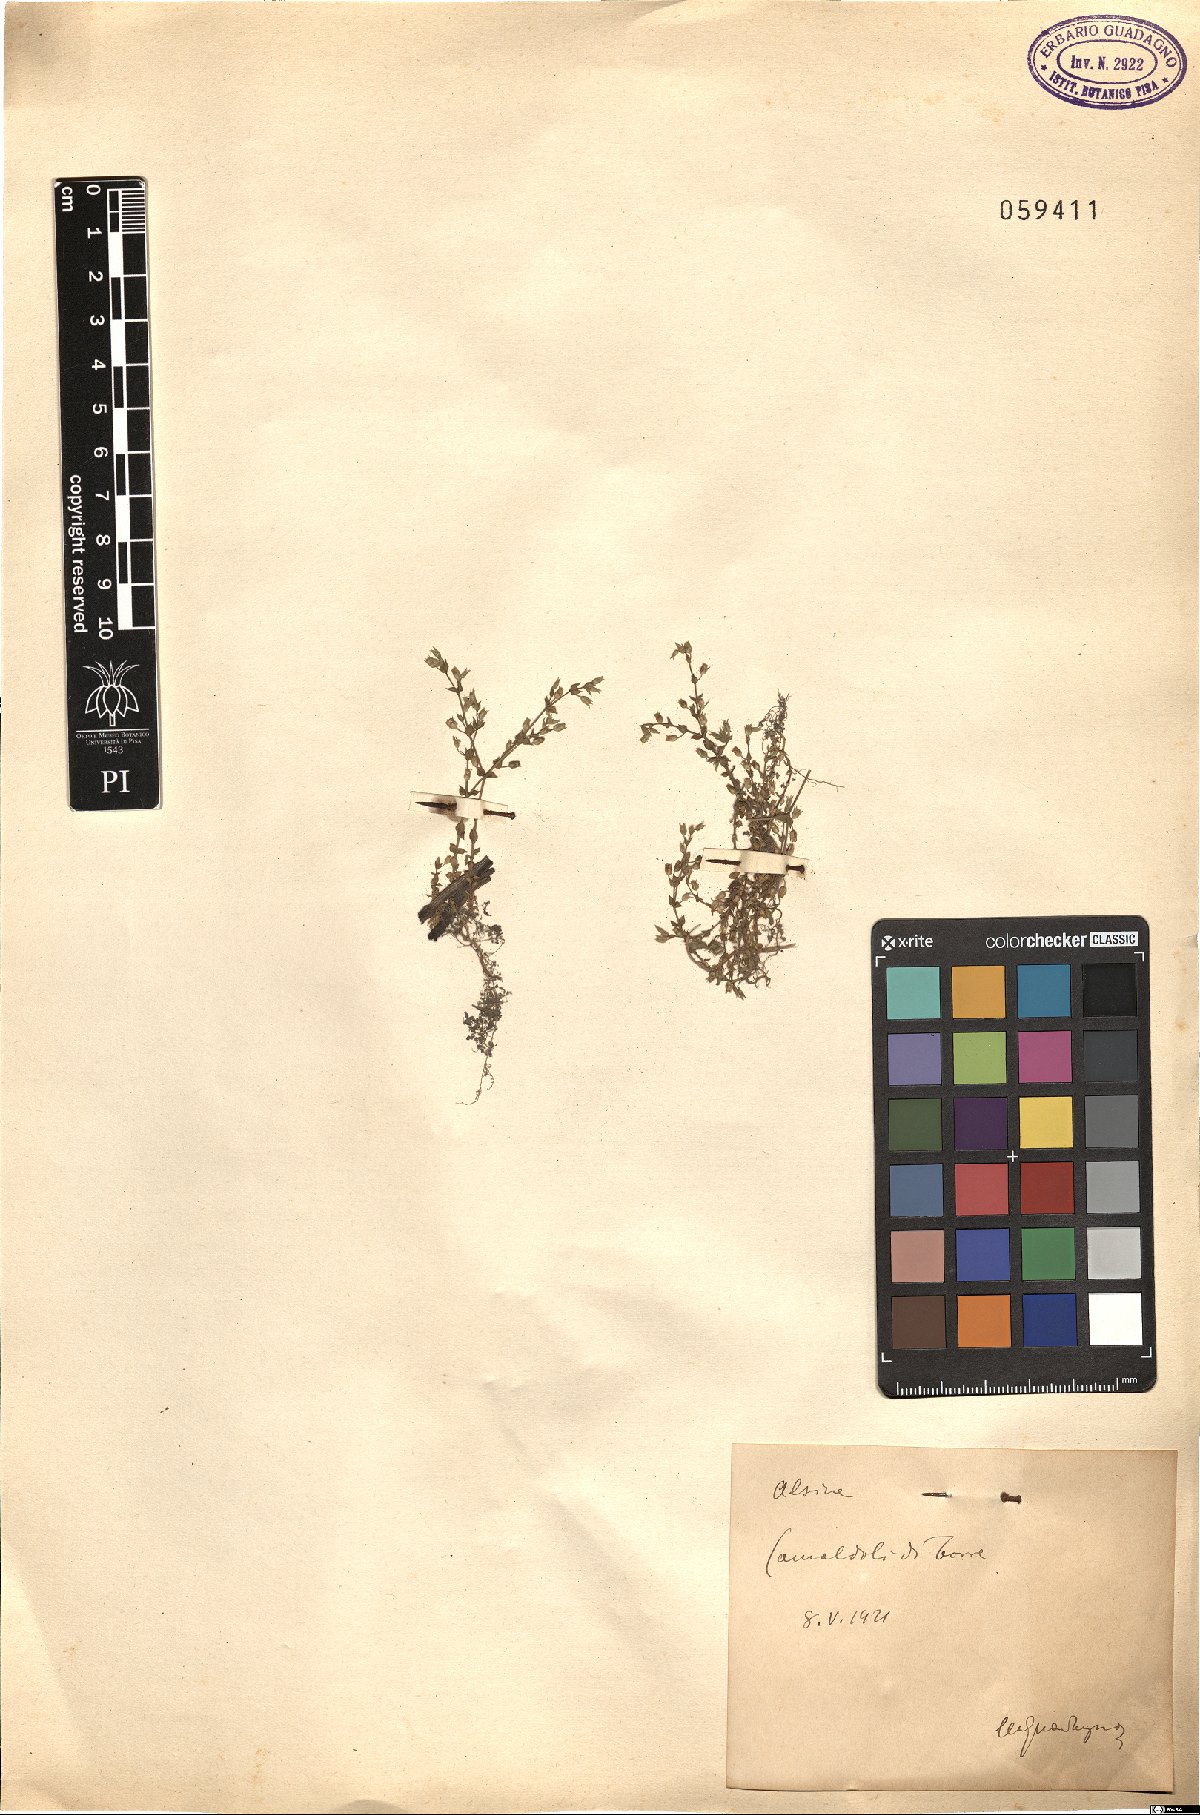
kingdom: Plantae
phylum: Tracheophyta
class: Magnoliopsida
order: Caryophyllales
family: Caryophyllaceae
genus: Minuartia
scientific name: Minuartia hamata
